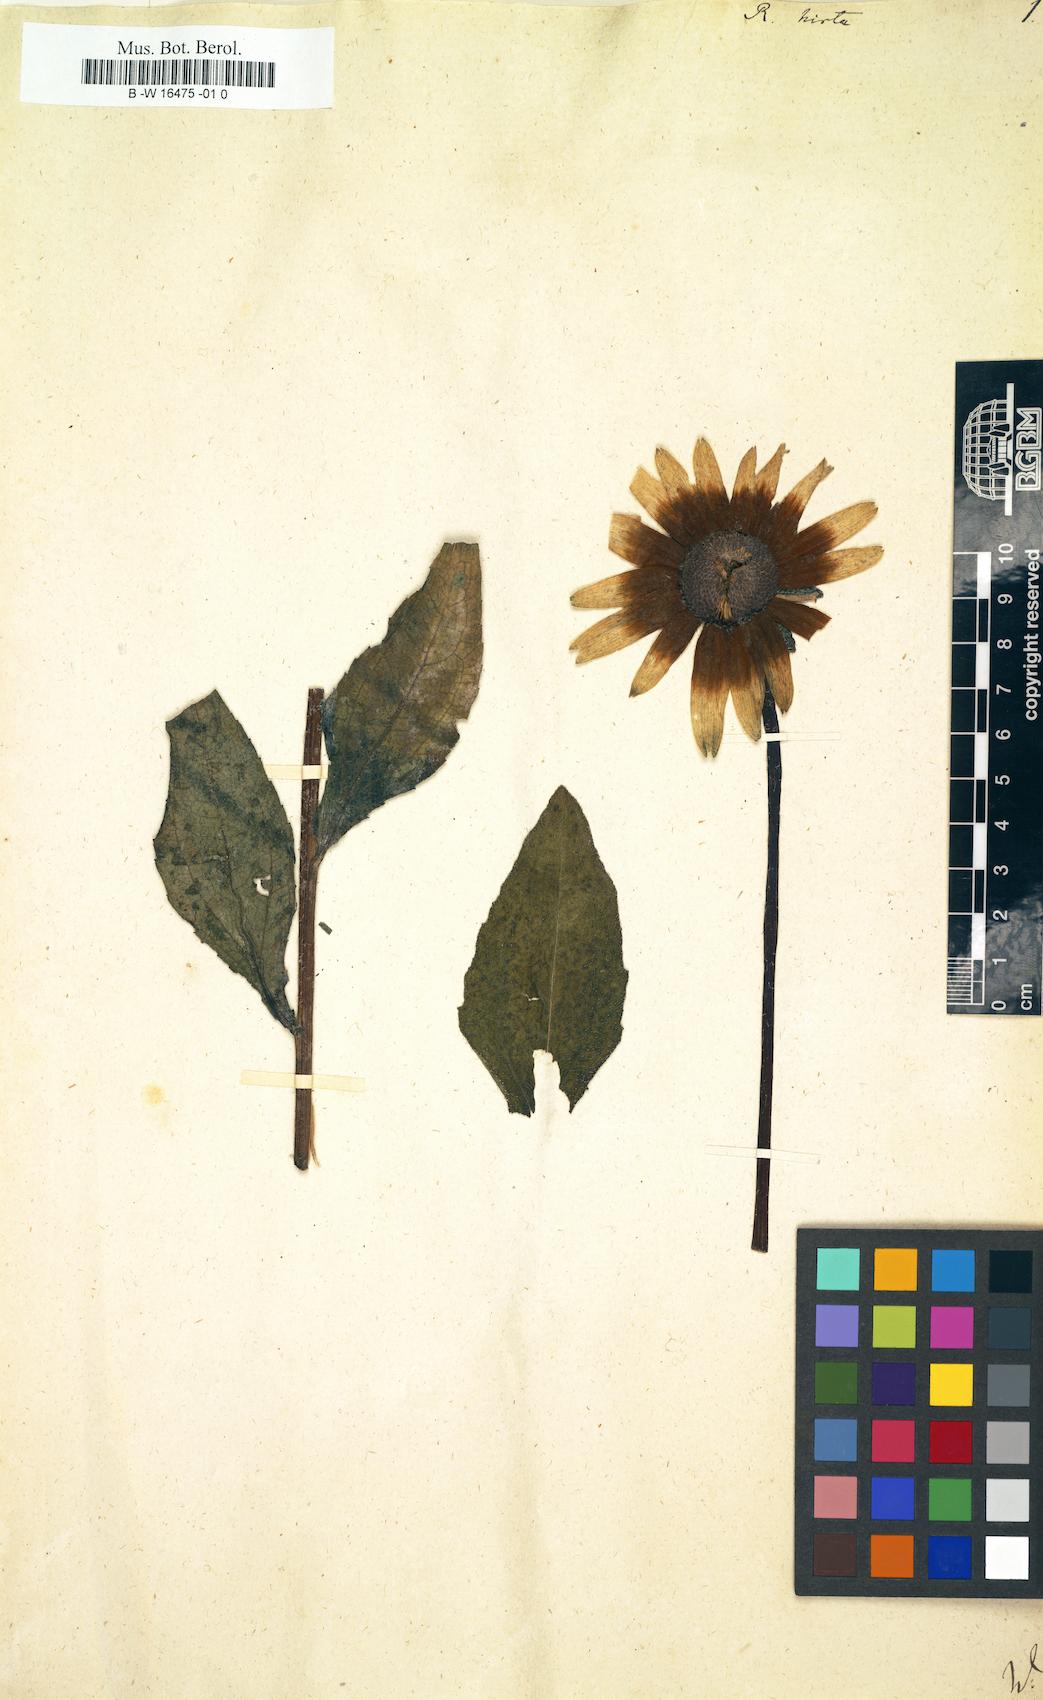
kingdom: Plantae
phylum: Tracheophyta
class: Magnoliopsida
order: Asterales
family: Asteraceae
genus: Rudbeckia
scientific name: Rudbeckia hirta
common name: Black-eyed-susan
